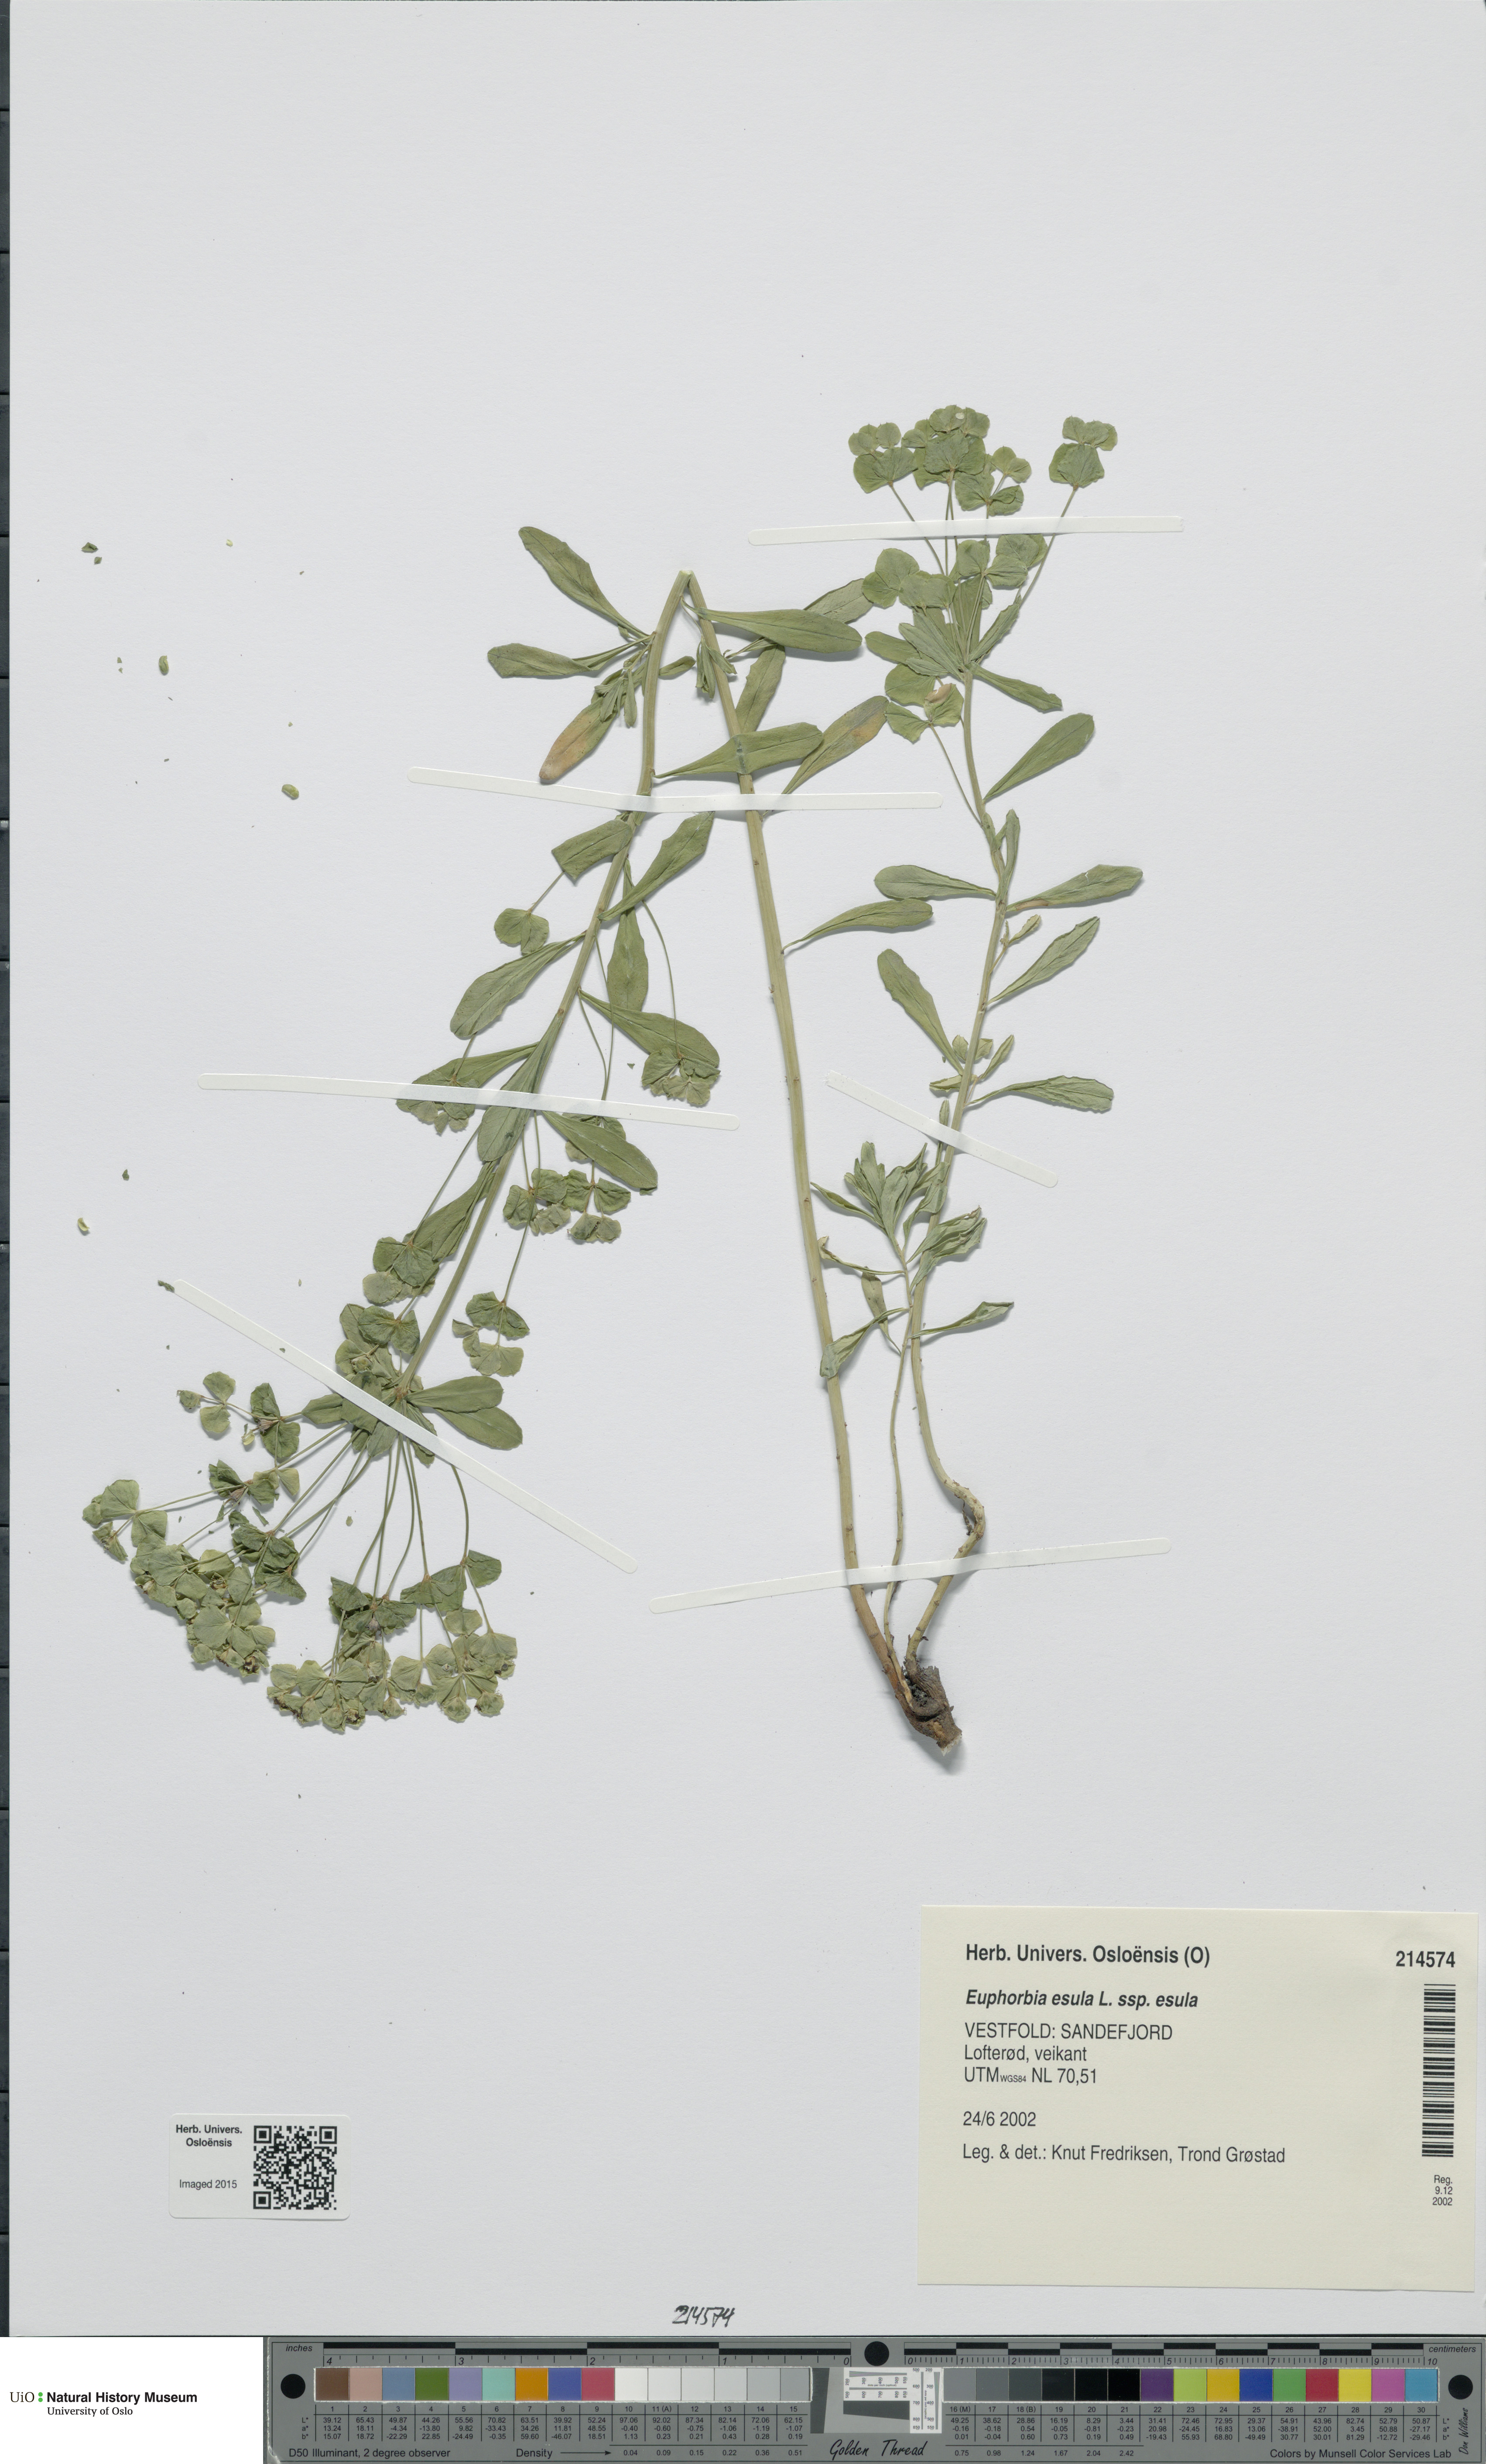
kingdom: Plantae
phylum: Tracheophyta
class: Magnoliopsida
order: Malpighiales
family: Euphorbiaceae
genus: Euphorbia
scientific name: Euphorbia esula
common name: Leafy spurge
